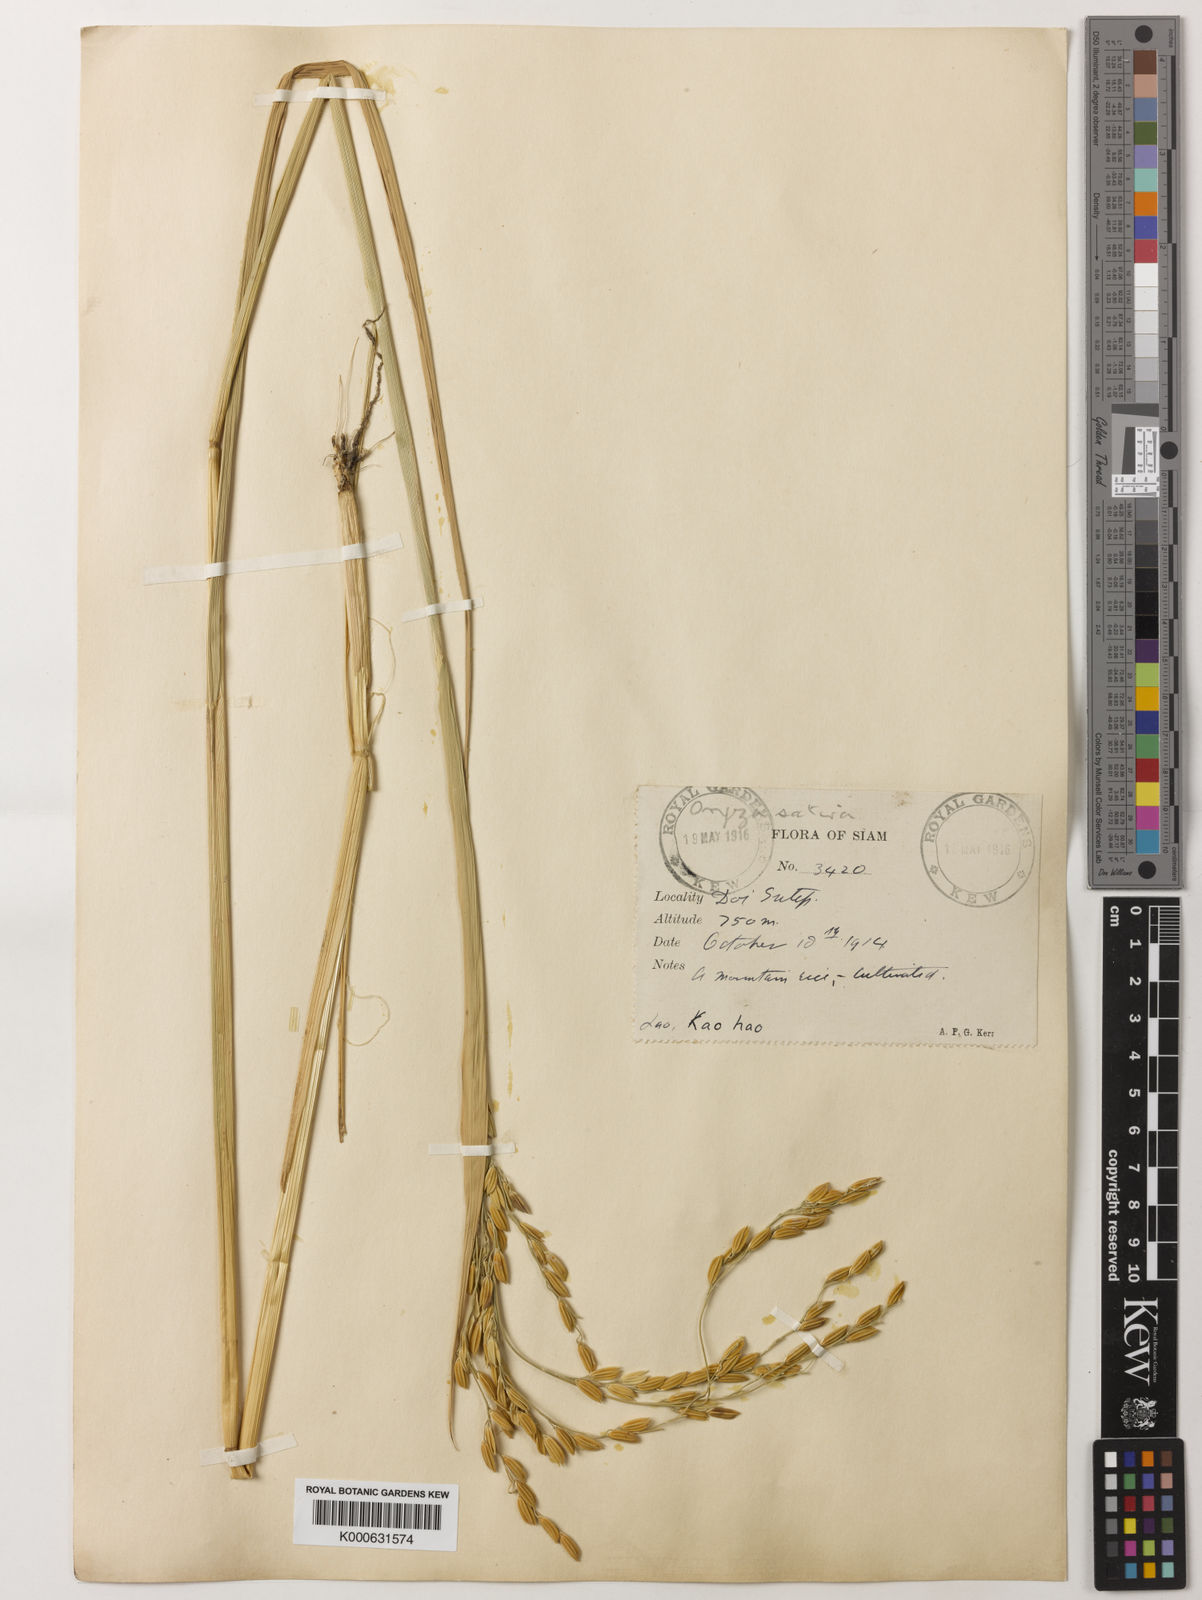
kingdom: Plantae
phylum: Tracheophyta
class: Liliopsida
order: Poales
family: Poaceae
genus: Oryza
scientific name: Oryza sativa
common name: Rice
